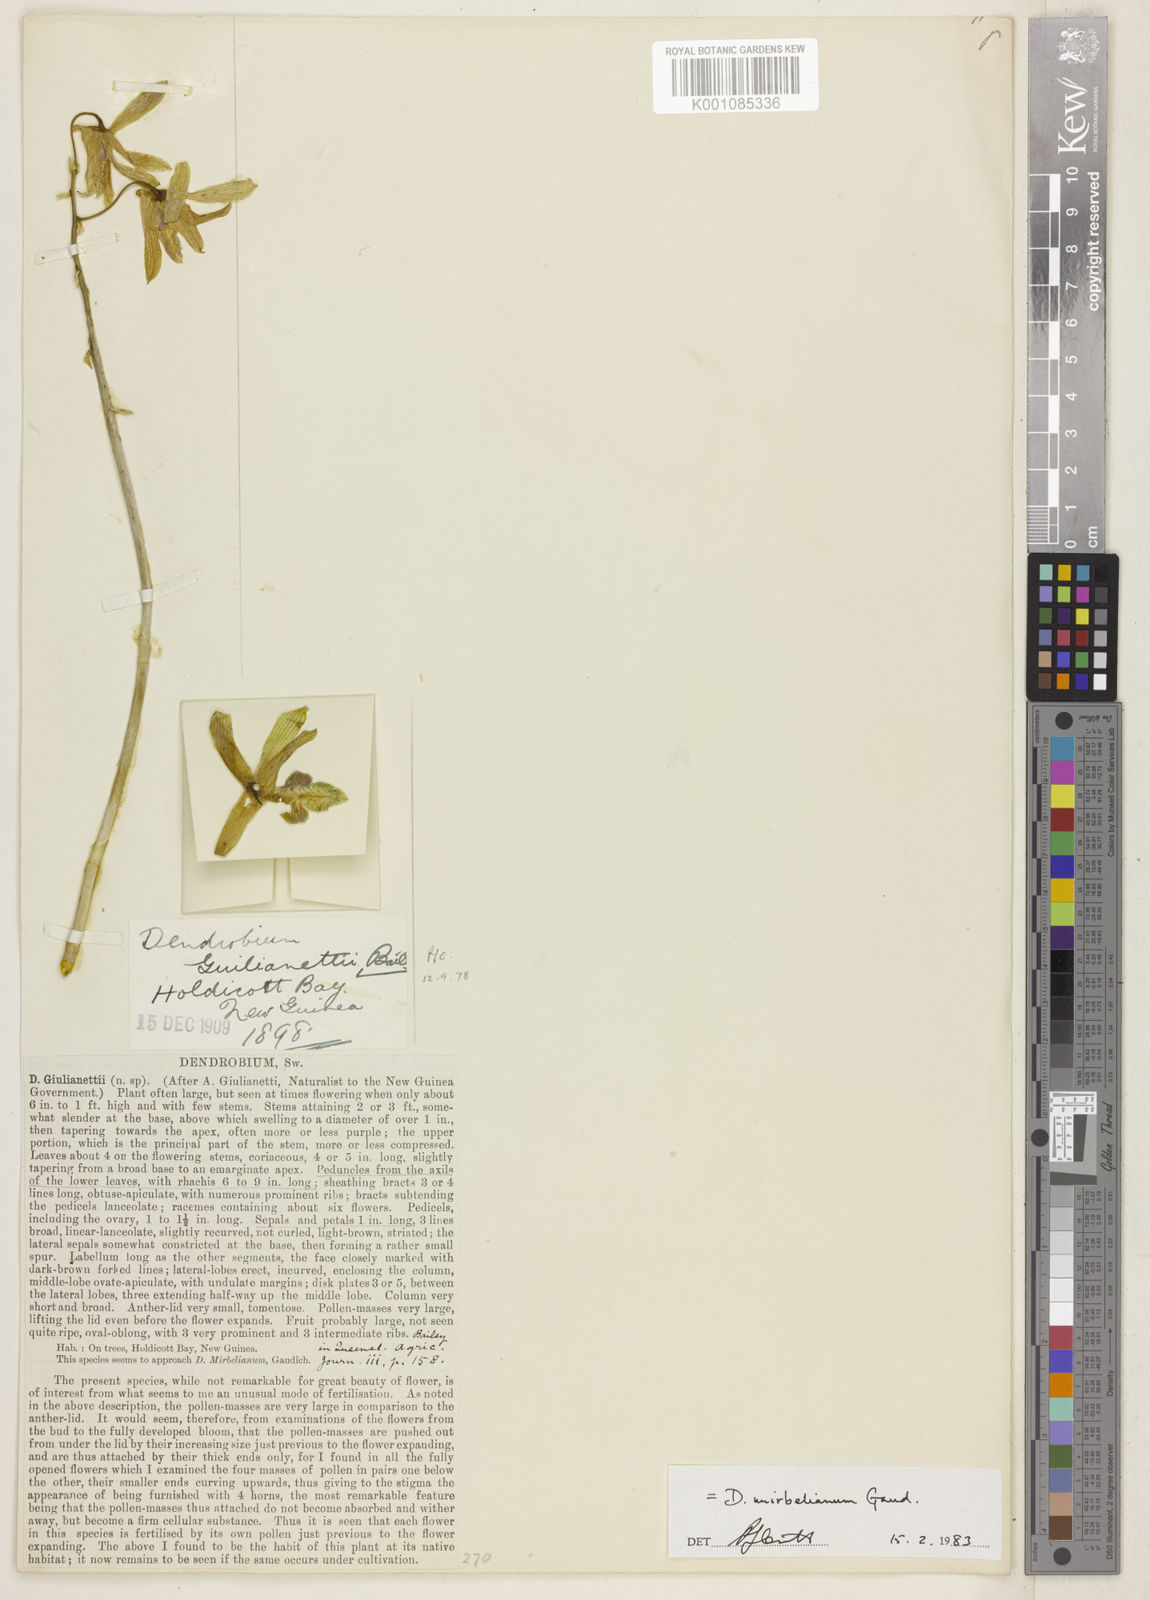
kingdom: Plantae
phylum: Tracheophyta
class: Liliopsida
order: Asparagales
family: Orchidaceae
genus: Dendrobium
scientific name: Dendrobium mirbelianum
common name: Orchid
